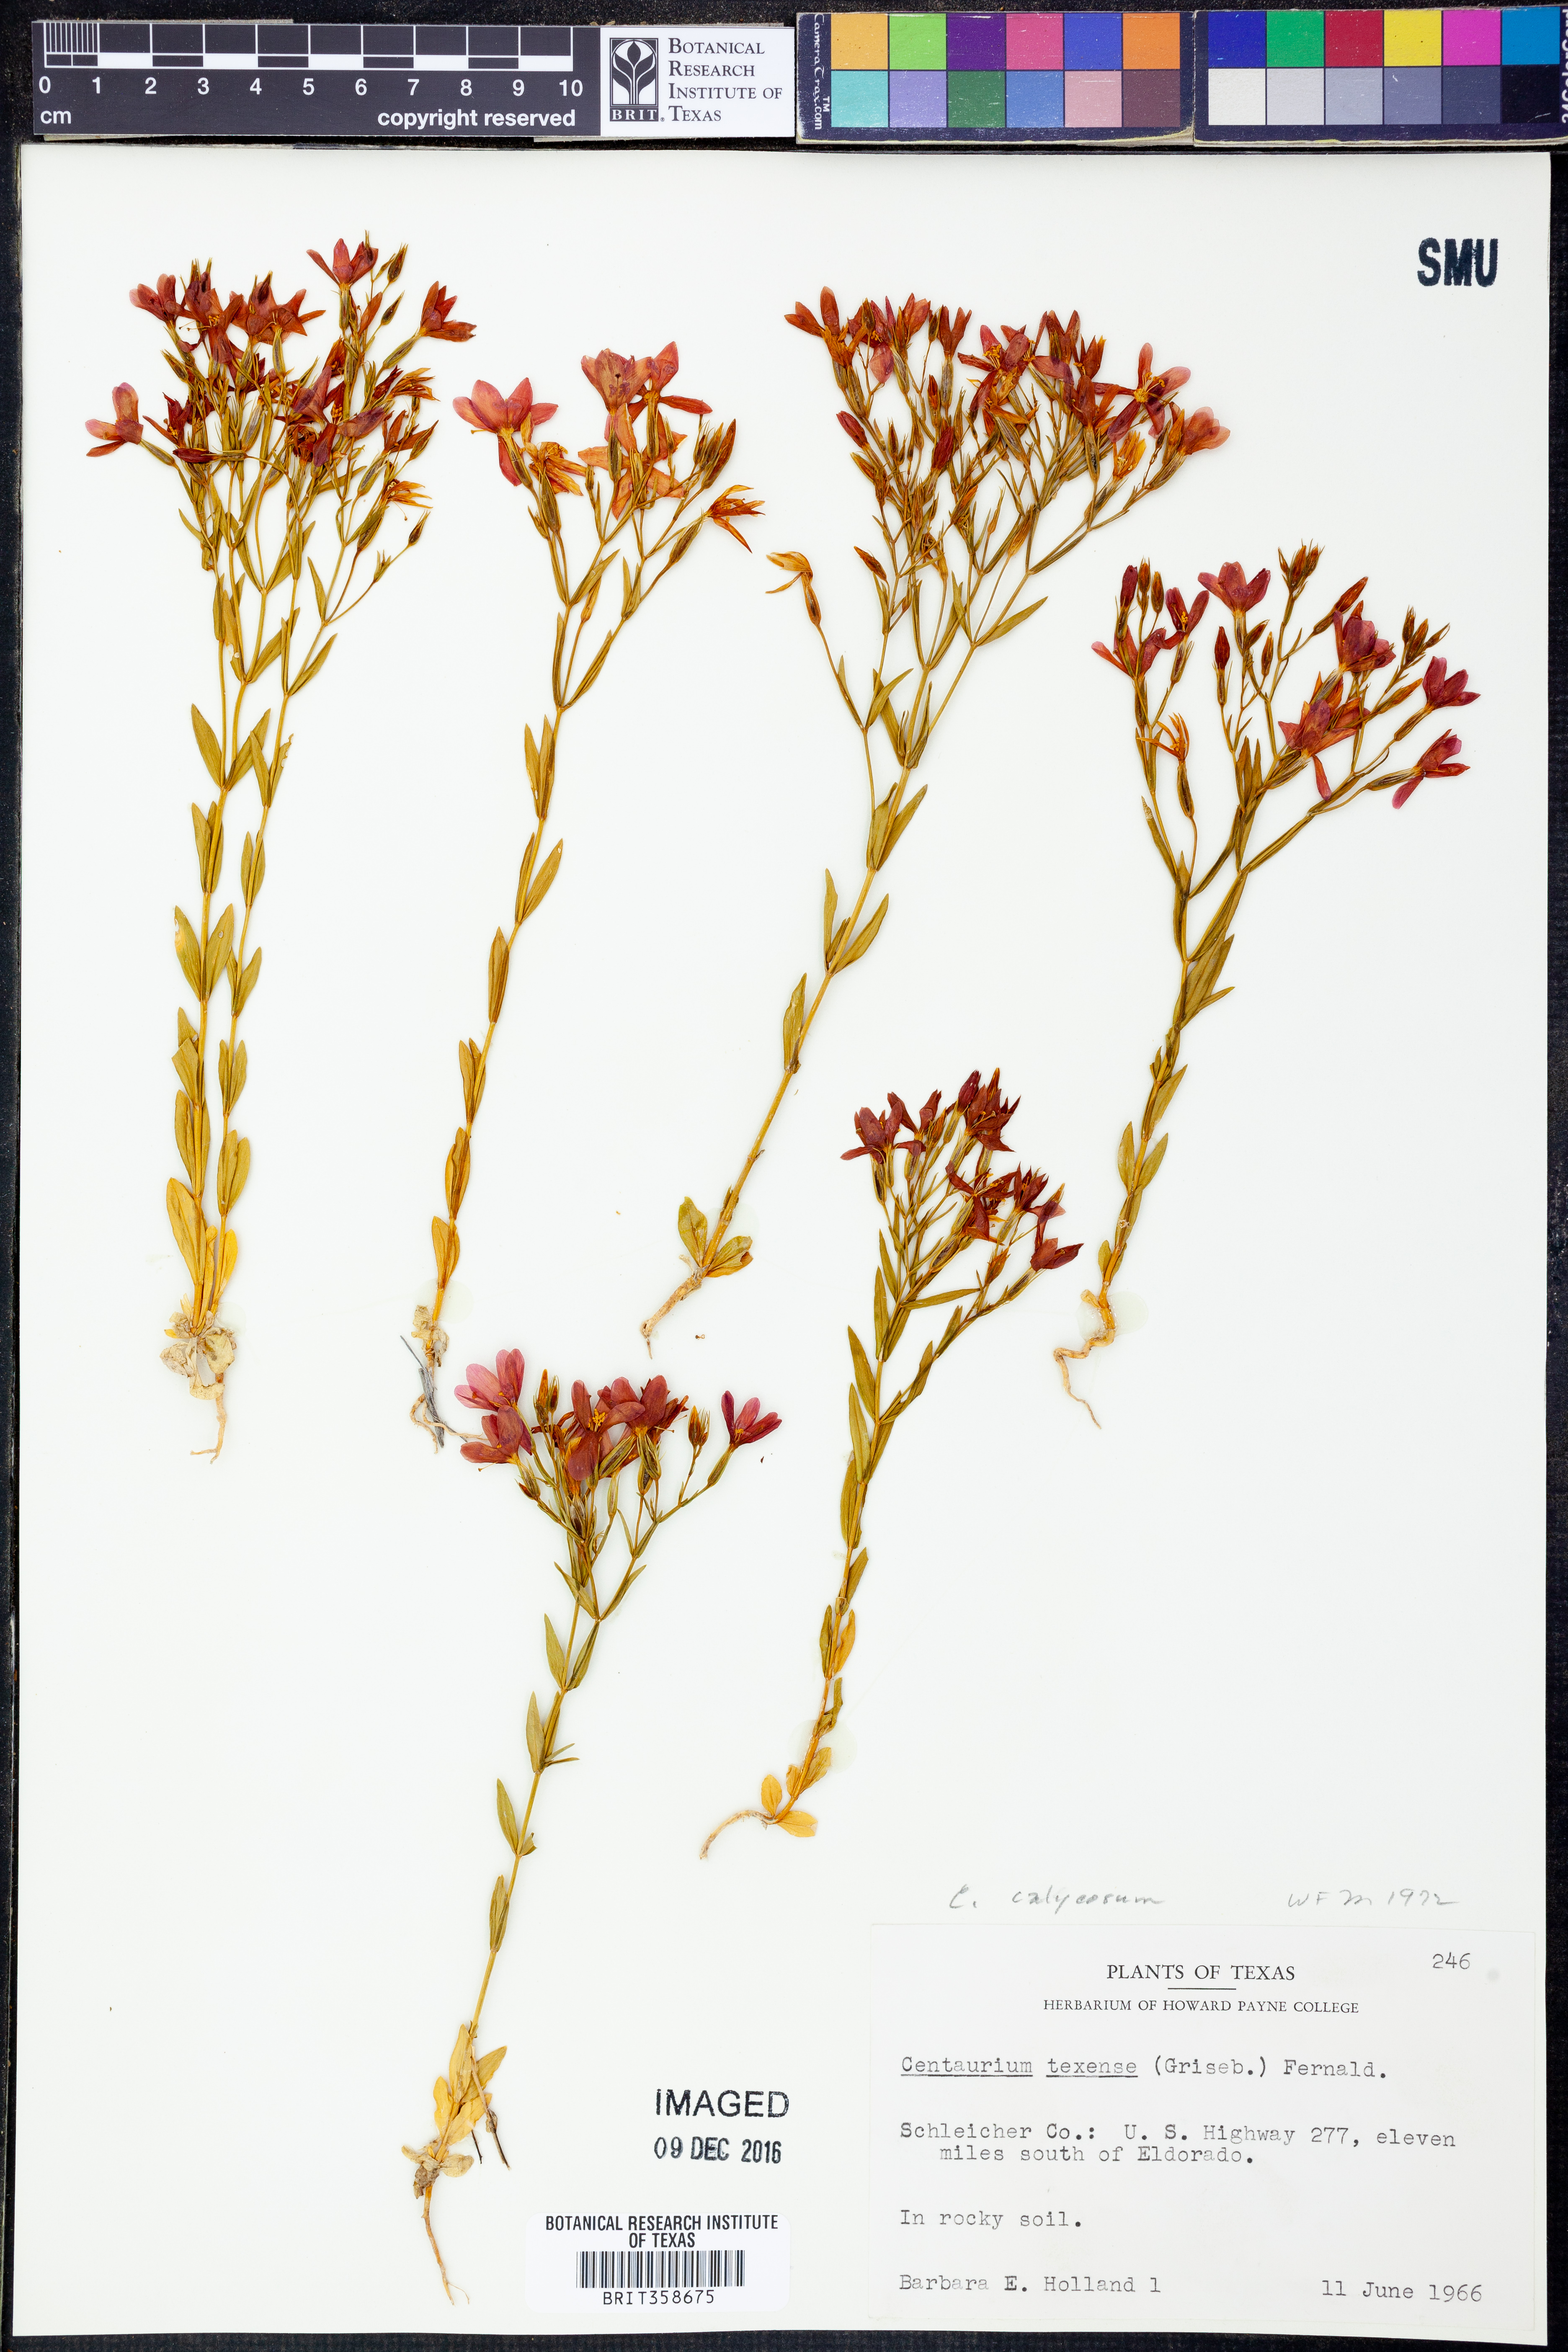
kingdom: Plantae
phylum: Tracheophyta
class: Magnoliopsida
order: Gentianales
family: Gentianaceae
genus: Zeltnera
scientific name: Zeltnera calycosa
